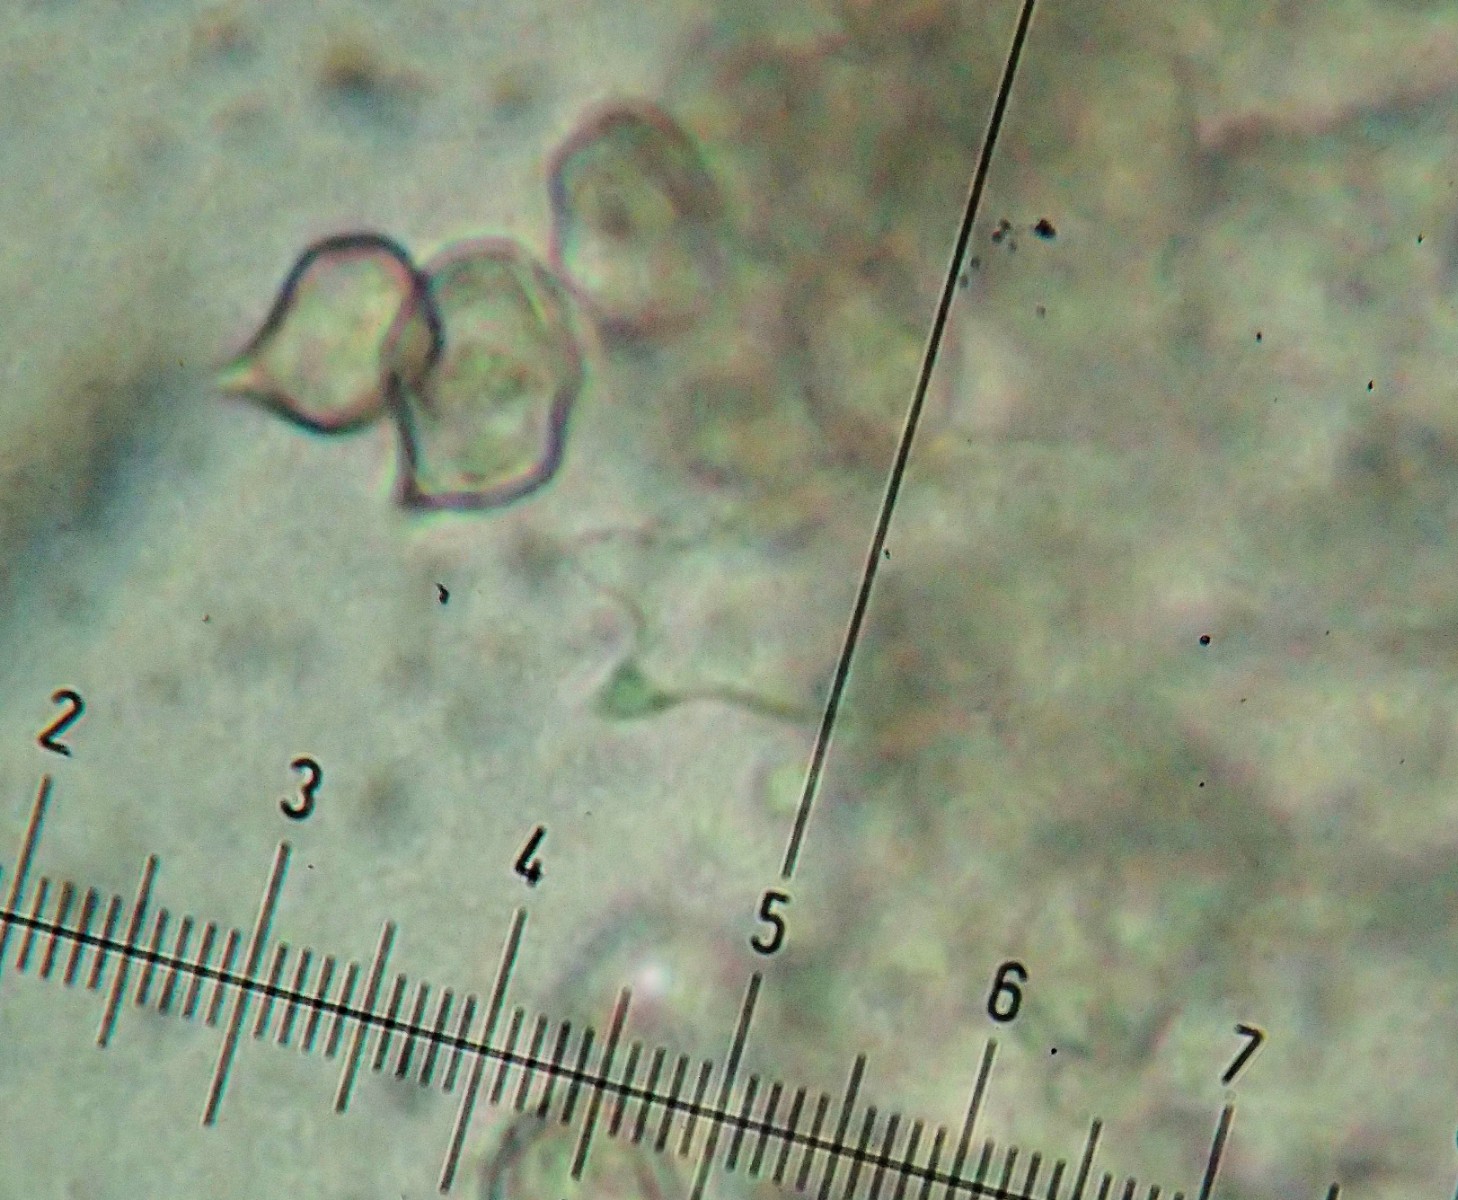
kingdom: Fungi
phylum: Basidiomycota
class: Agaricomycetes
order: Agaricales
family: Entolomataceae
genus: Entoloma
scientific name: Entoloma cetratum
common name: voks-rødblad
